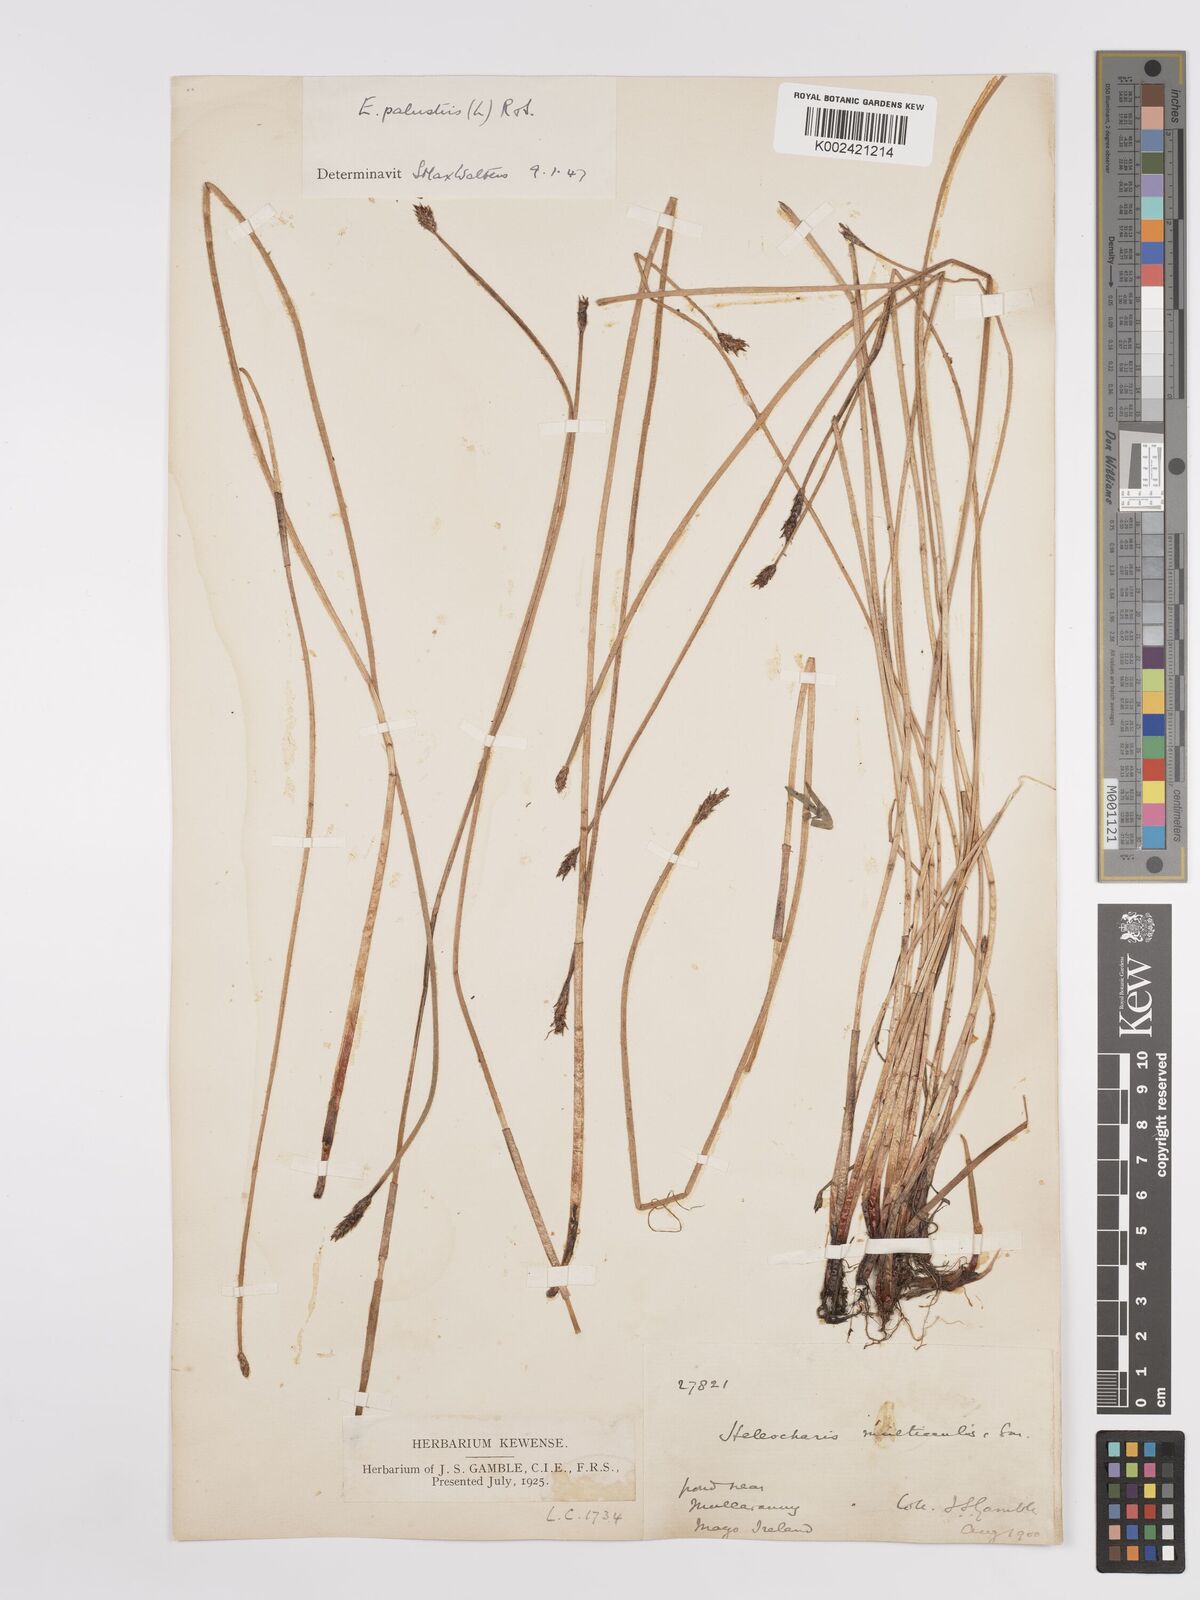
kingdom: Plantae
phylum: Tracheophyta
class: Liliopsida
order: Poales
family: Cyperaceae
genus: Eleocharis
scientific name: Eleocharis palustris
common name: Common spike-rush
